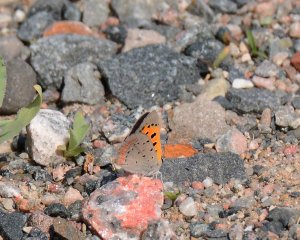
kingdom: Animalia
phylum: Arthropoda
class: Insecta
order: Lepidoptera
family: Lycaenidae
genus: Lycaena
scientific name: Lycaena phlaeas
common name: American Copper
